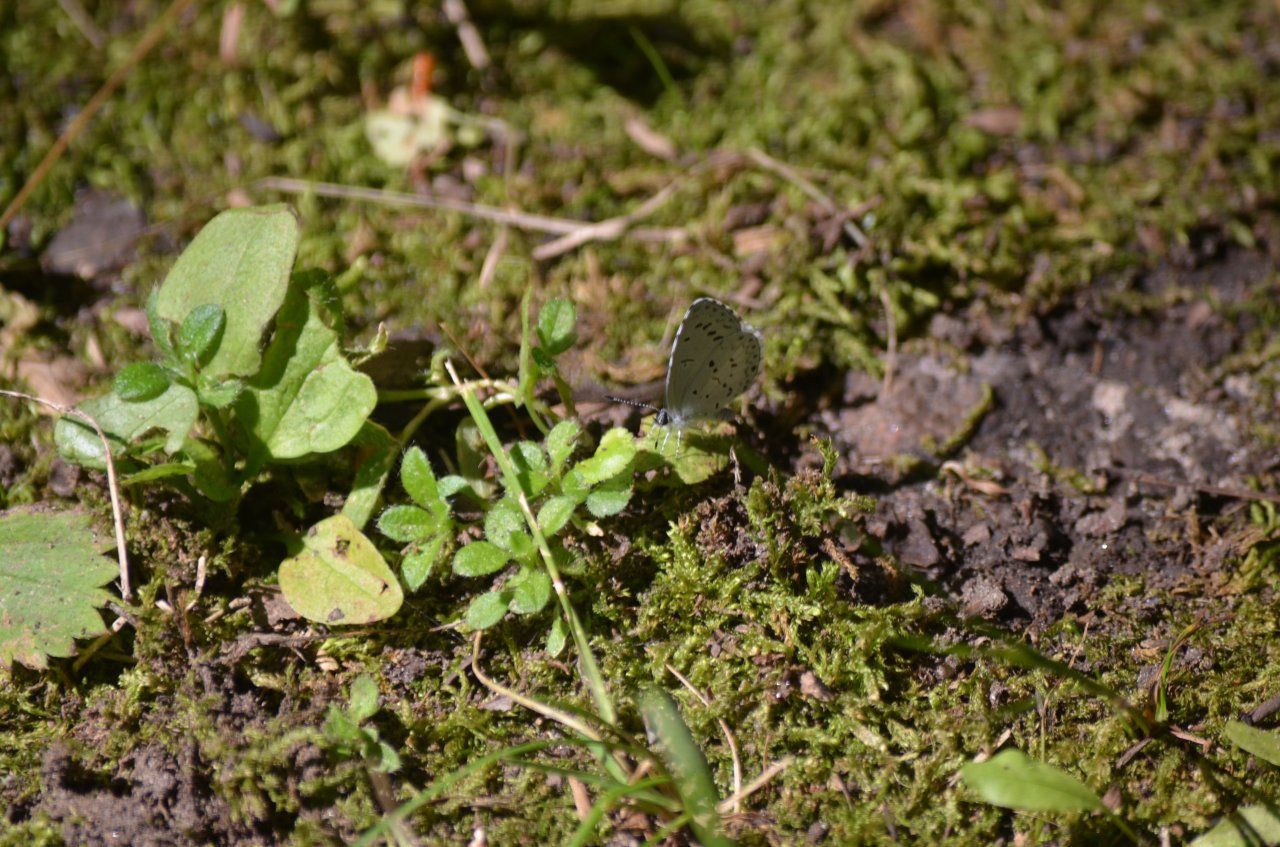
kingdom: Animalia
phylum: Arthropoda
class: Insecta
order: Lepidoptera
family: Lycaenidae
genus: Celastrina
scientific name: Celastrina lucia
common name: Northern Spring Azure
